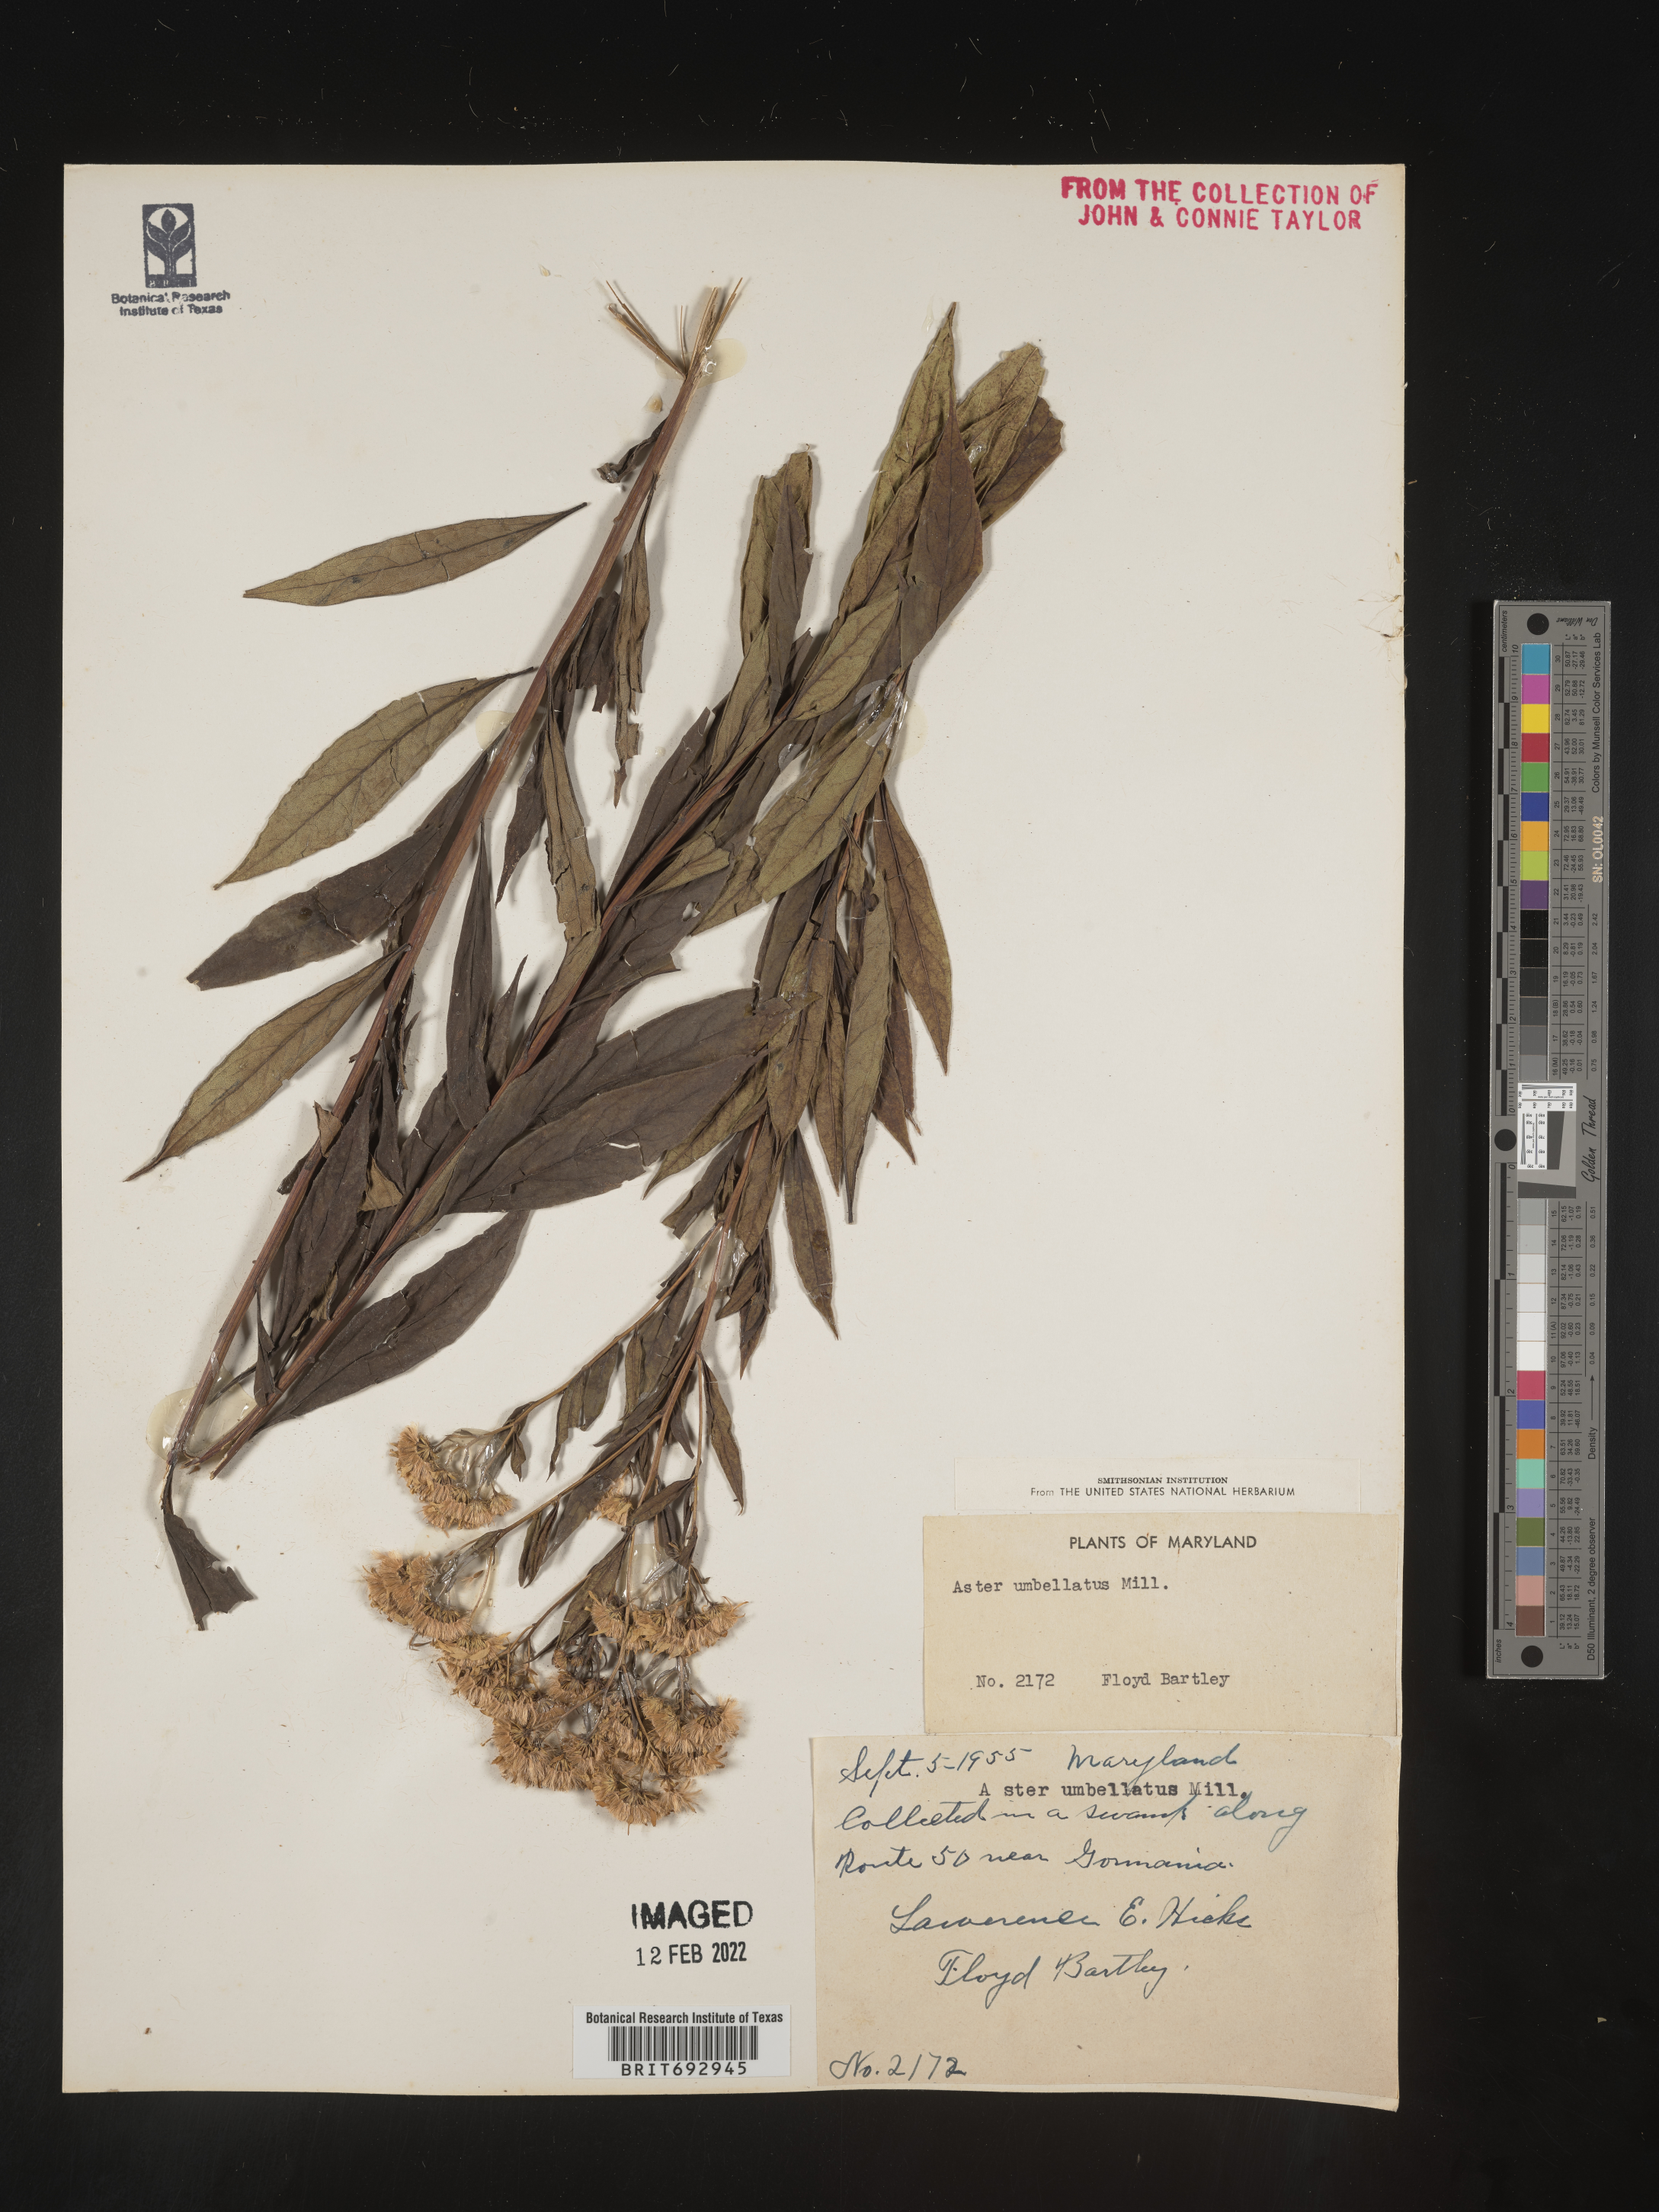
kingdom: Plantae
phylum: Tracheophyta
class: Magnoliopsida
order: Asterales
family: Asteraceae
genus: Doellingeria
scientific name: Doellingeria umbellata
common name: Flat-top white aster
